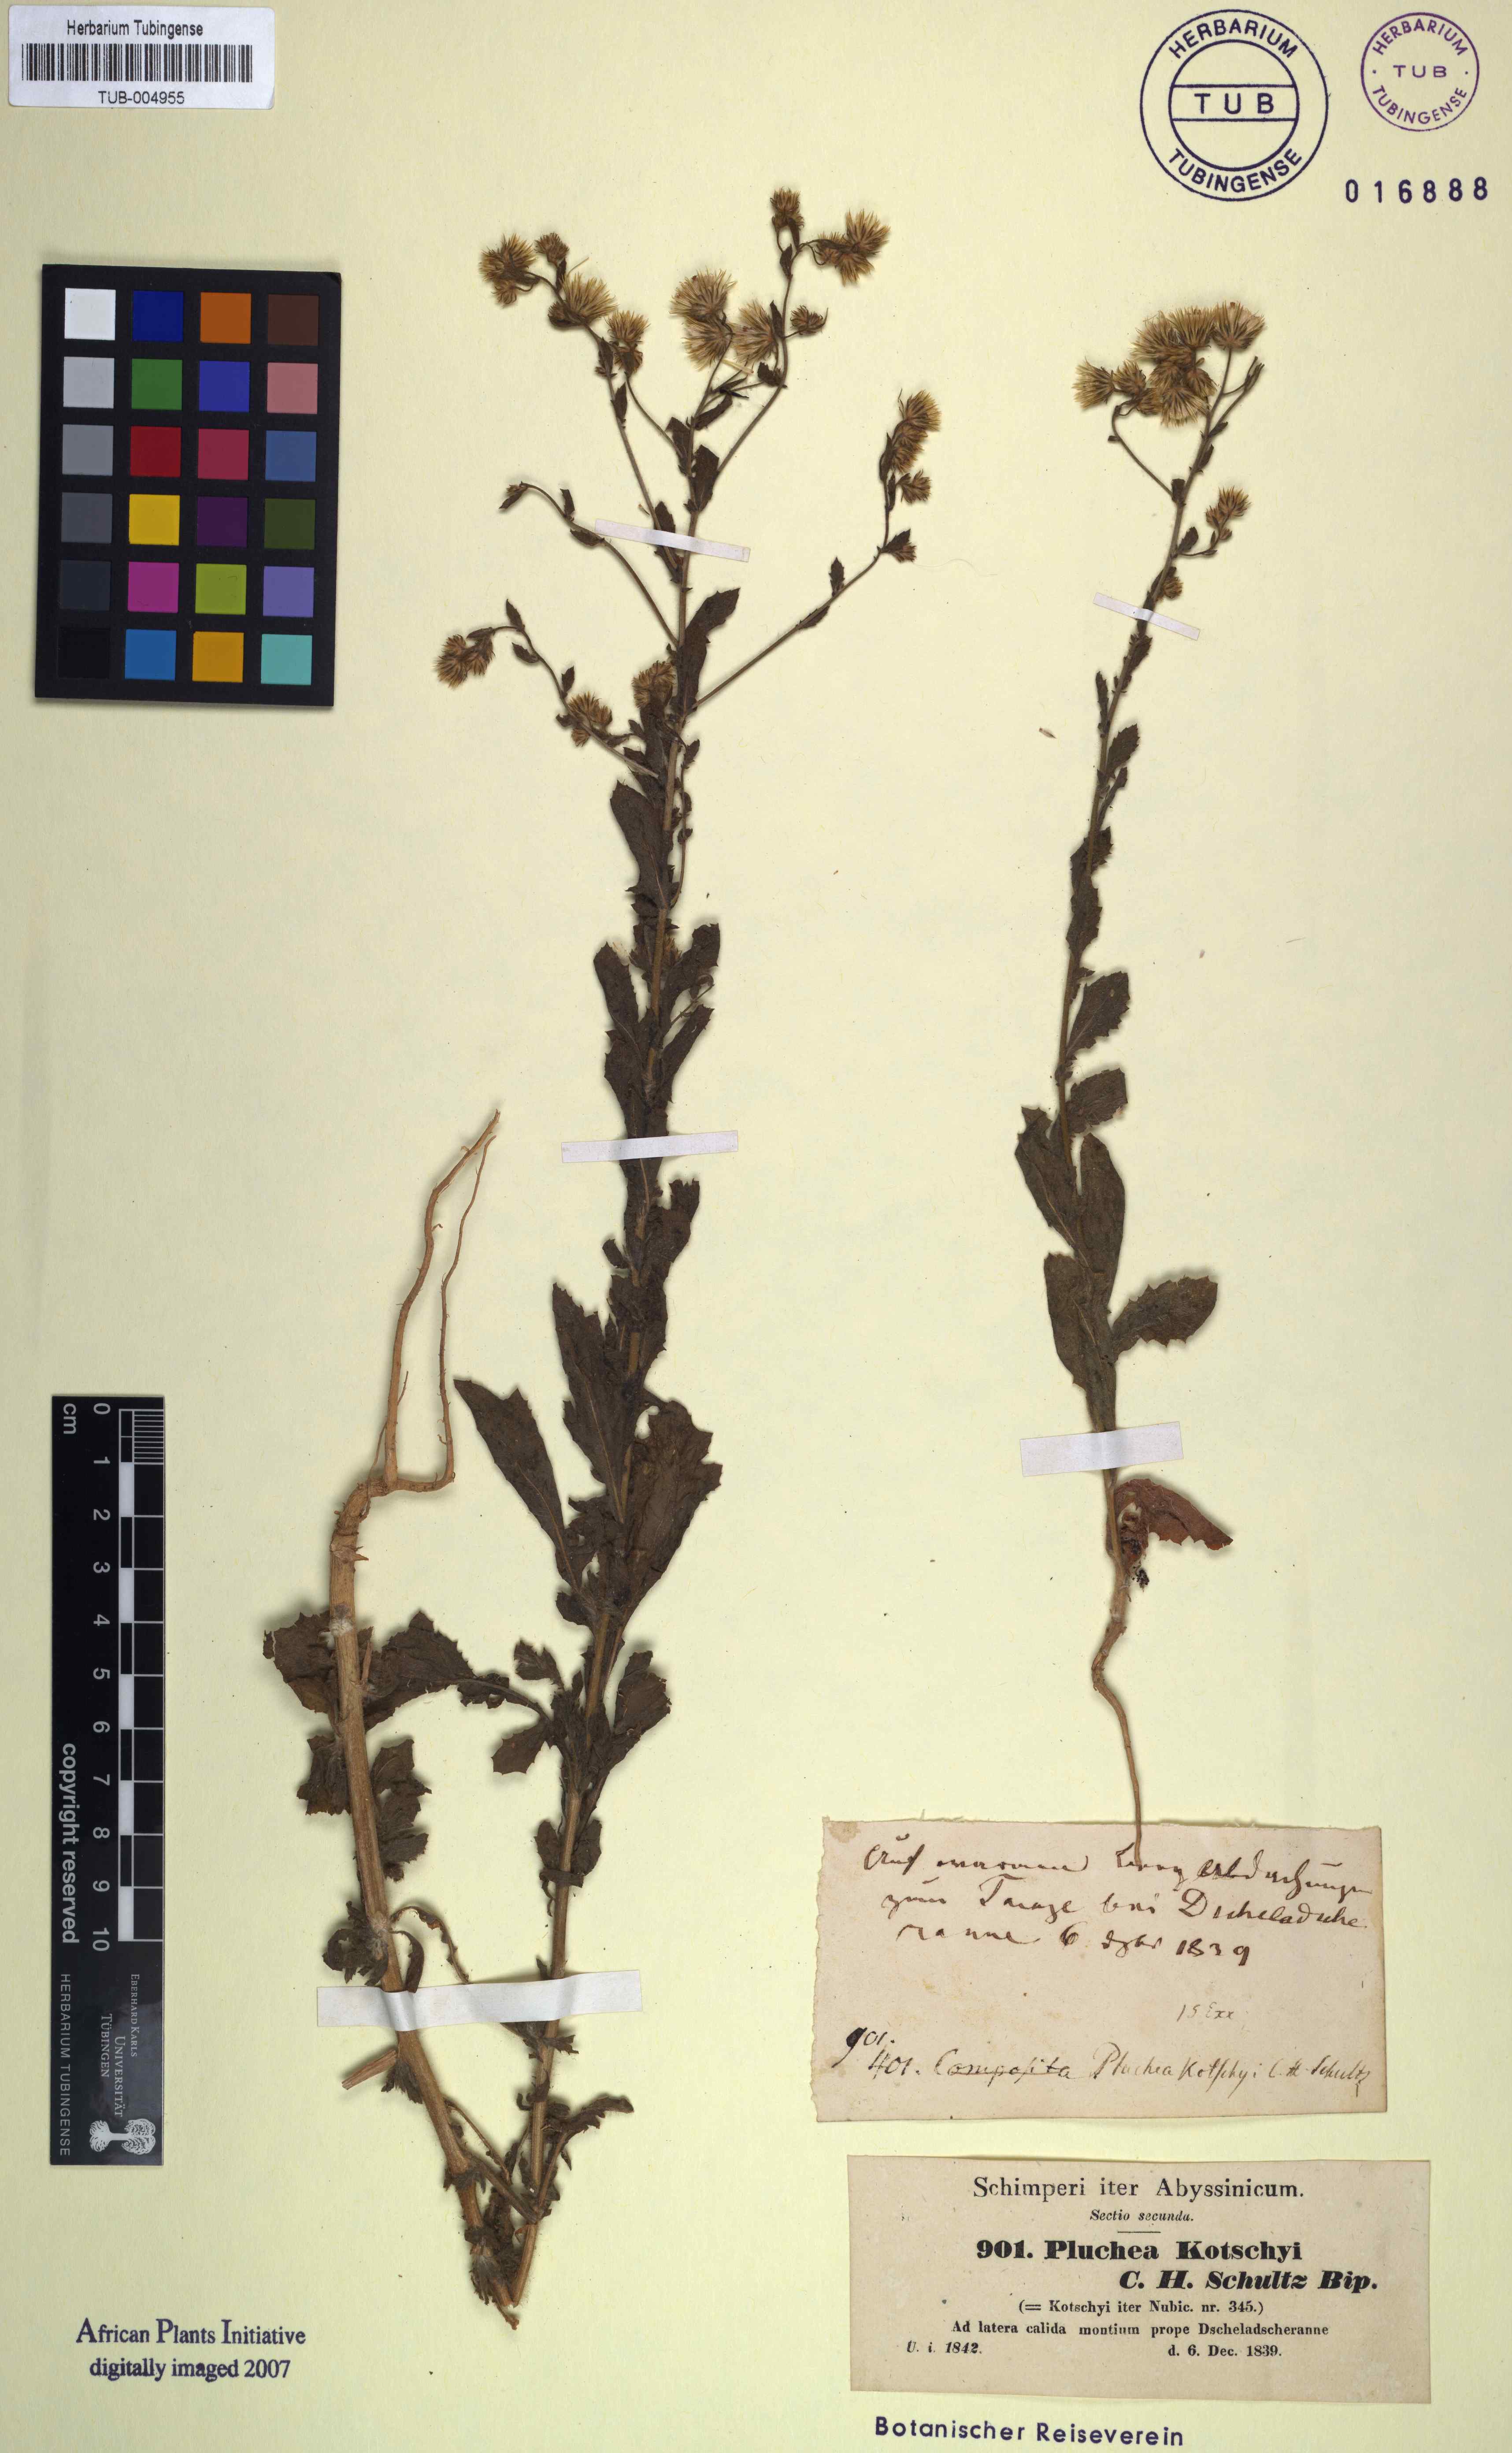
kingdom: Plantae
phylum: Tracheophyta
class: Magnoliopsida
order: Asterales
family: Asteraceae
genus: Pseudoconyza
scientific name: Pseudoconyza viscosa
